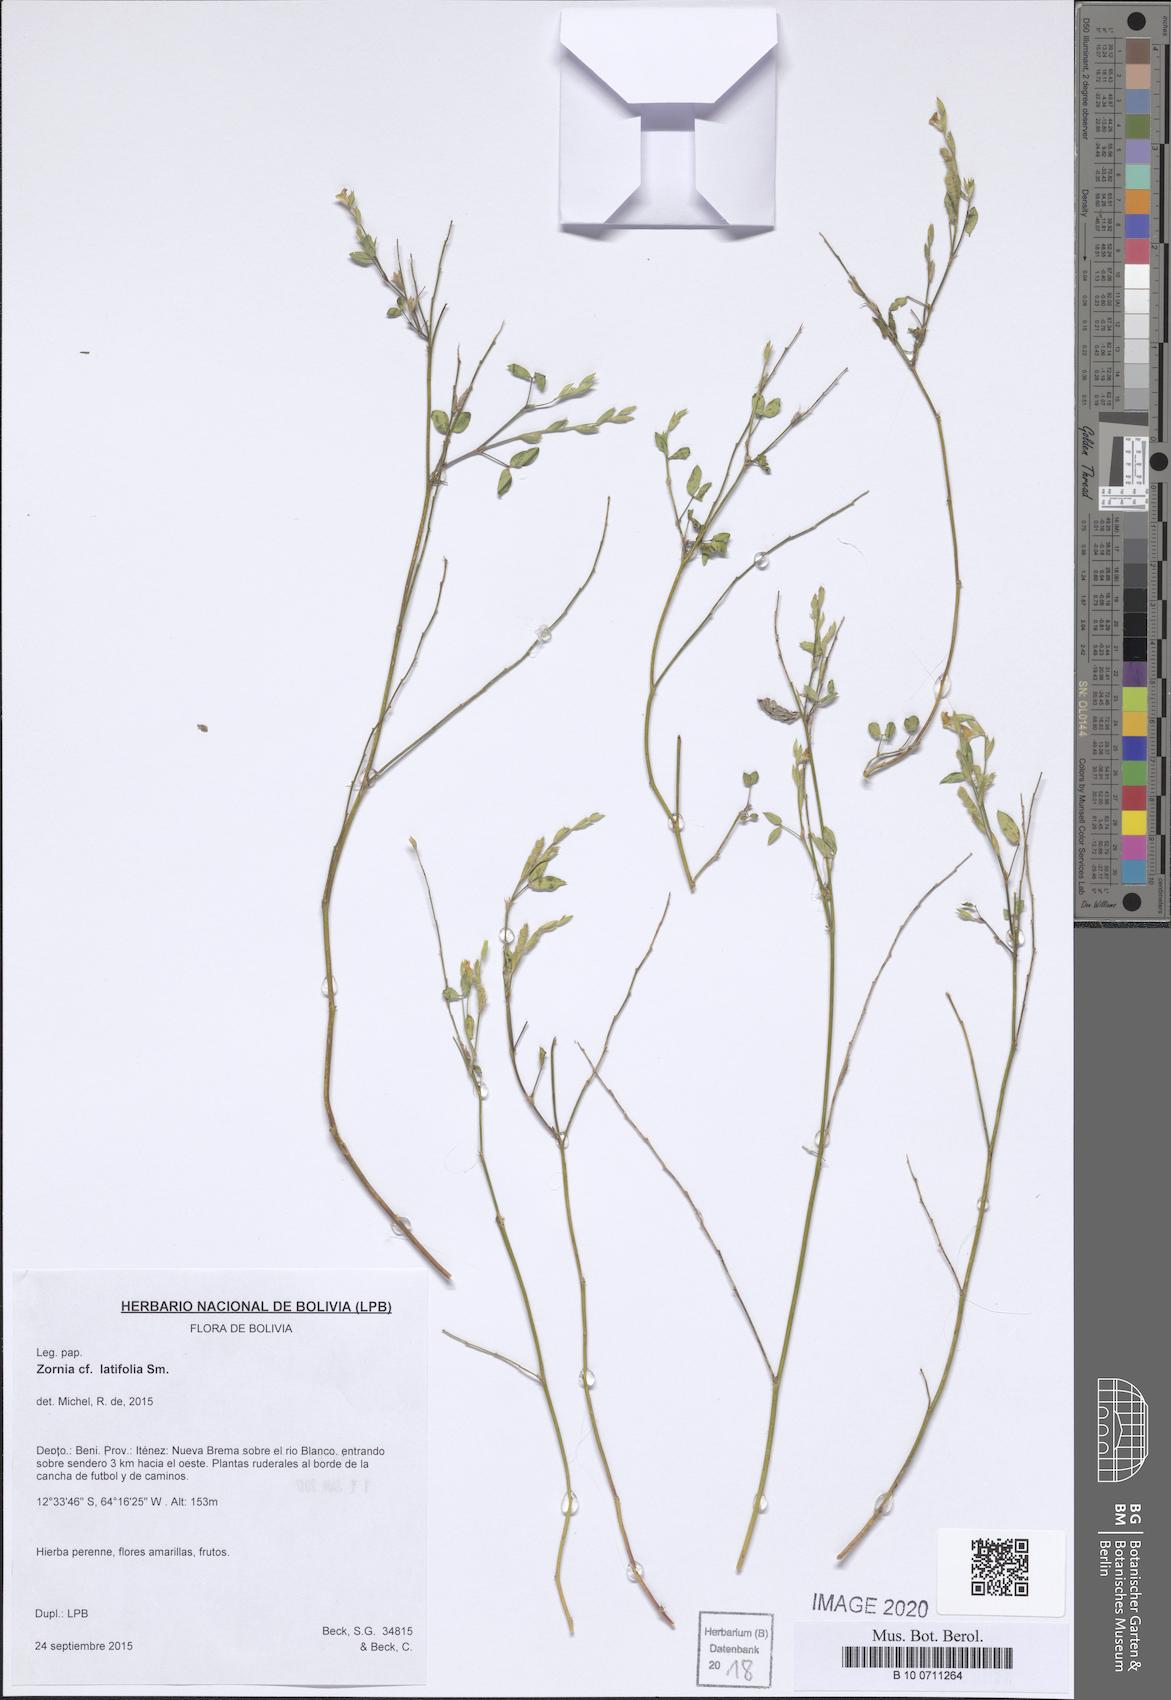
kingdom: Plantae
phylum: Tracheophyta
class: Magnoliopsida
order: Fabales
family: Fabaceae
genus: Zornia
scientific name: Zornia latifolia
